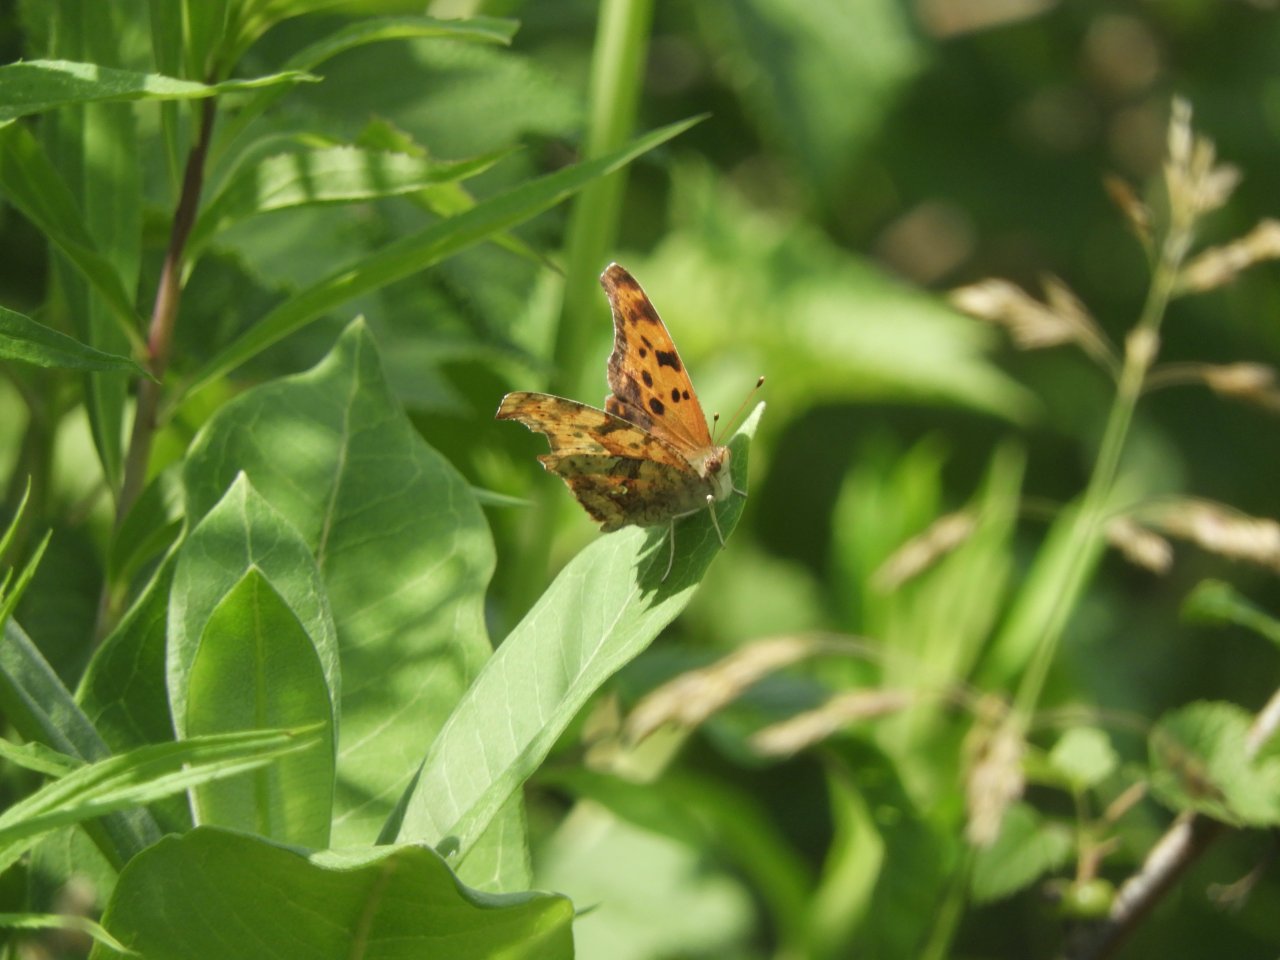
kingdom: Animalia
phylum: Arthropoda
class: Insecta
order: Lepidoptera
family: Nymphalidae
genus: Polygonia
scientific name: Polygonia interrogationis
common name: Question Mark
